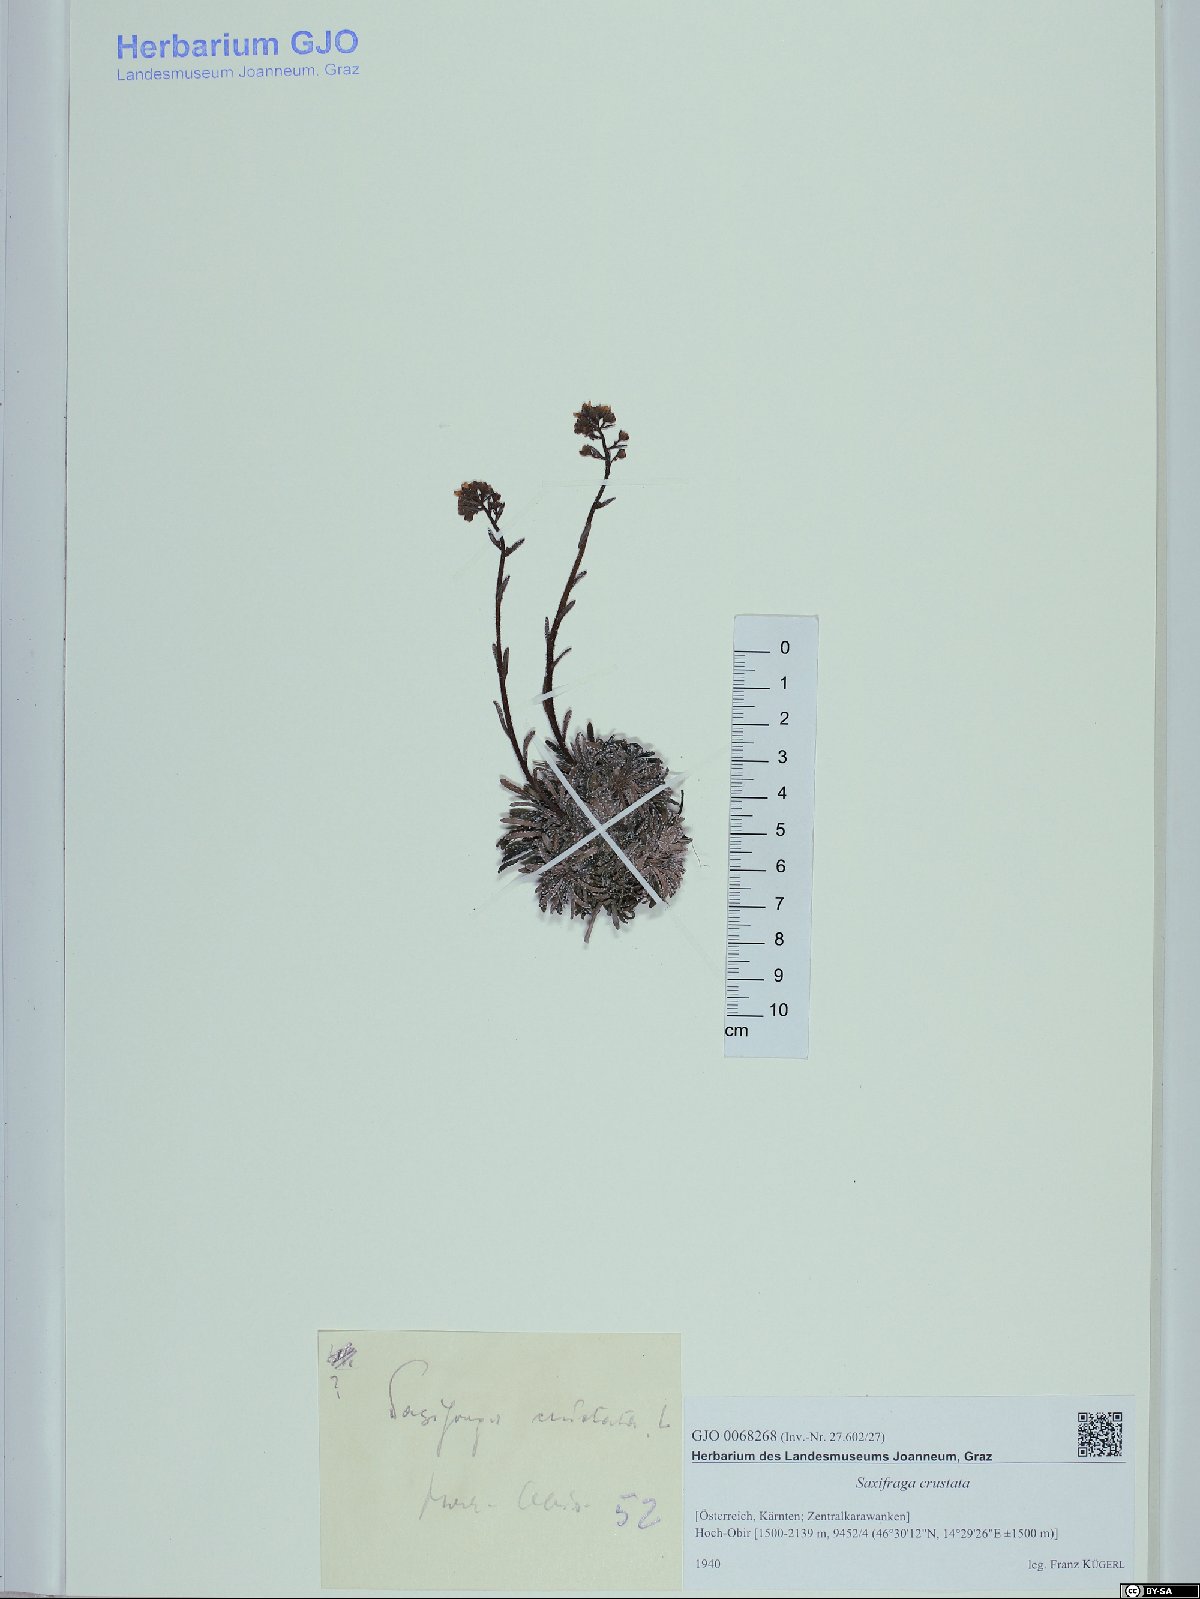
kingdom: Plantae
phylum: Tracheophyta
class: Magnoliopsida
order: Saxifragales
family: Saxifragaceae
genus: Saxifraga
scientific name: Saxifraga crustata
